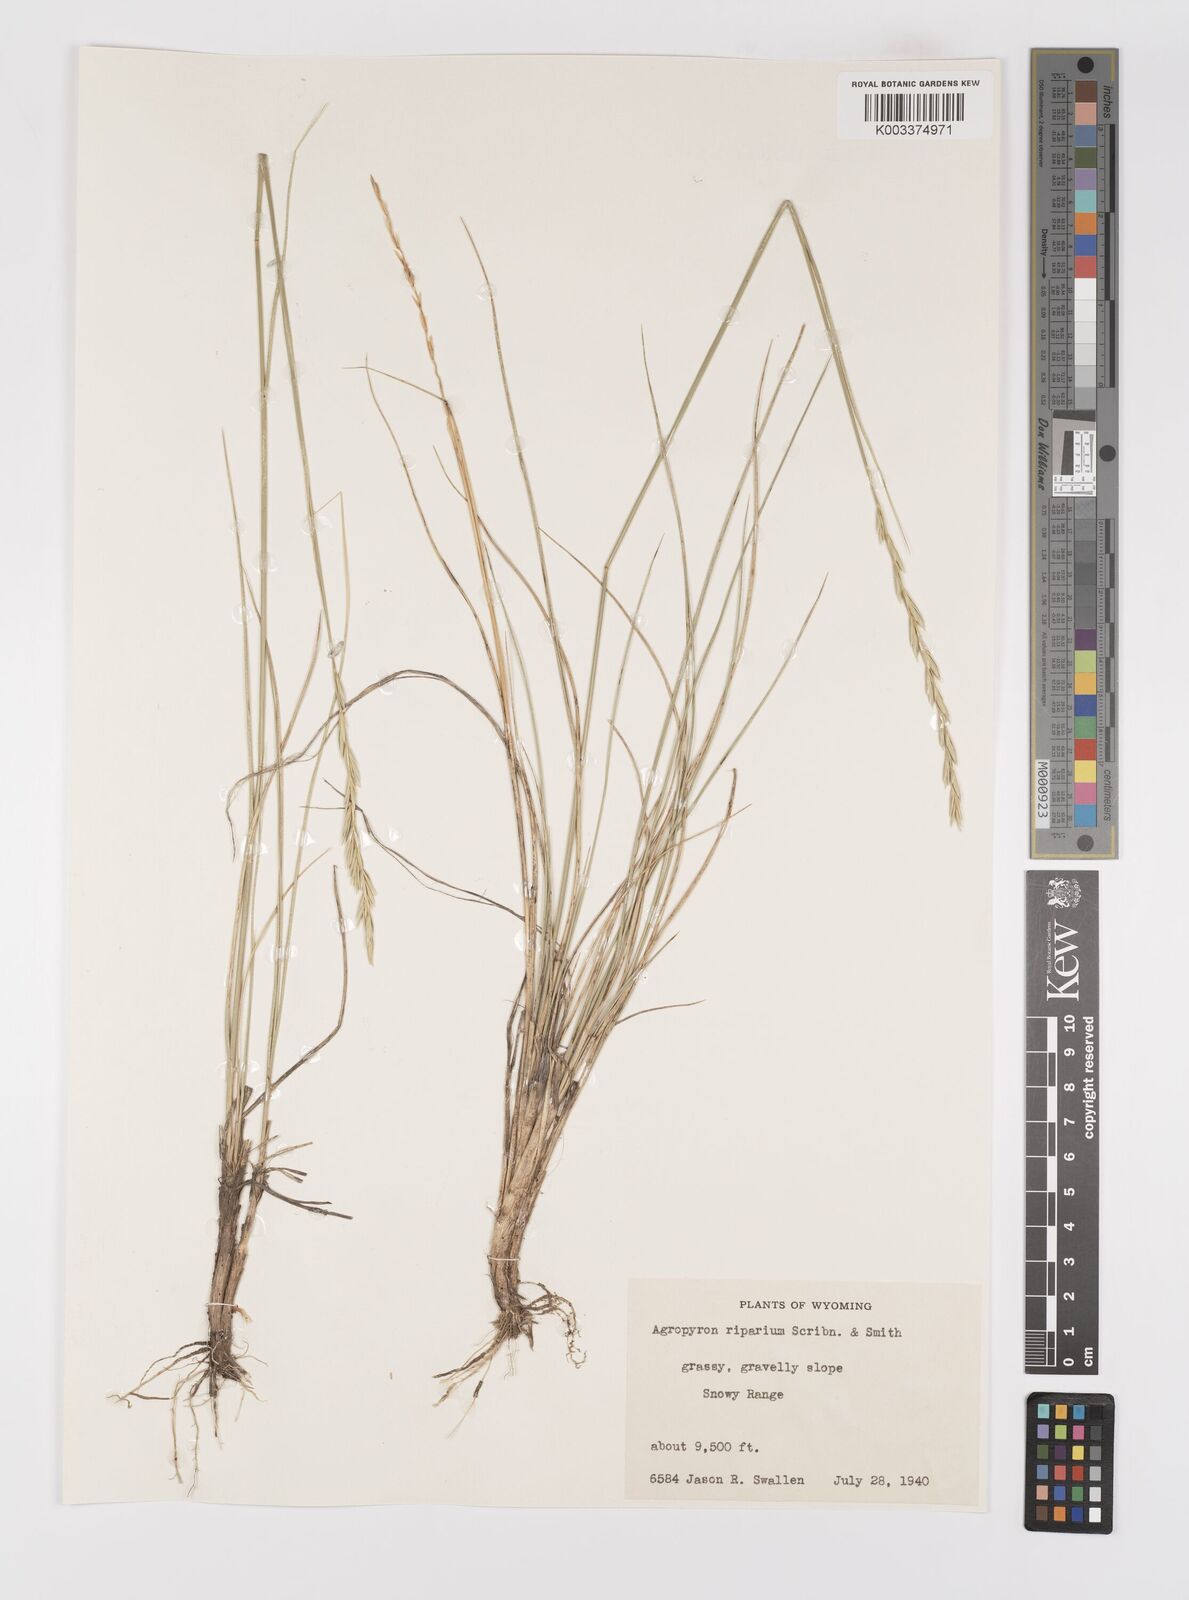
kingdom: Plantae
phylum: Tracheophyta
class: Liliopsida
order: Poales
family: Poaceae
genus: Elymus
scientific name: Elymus lanceolatus
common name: Thick-spike wheatgrass
